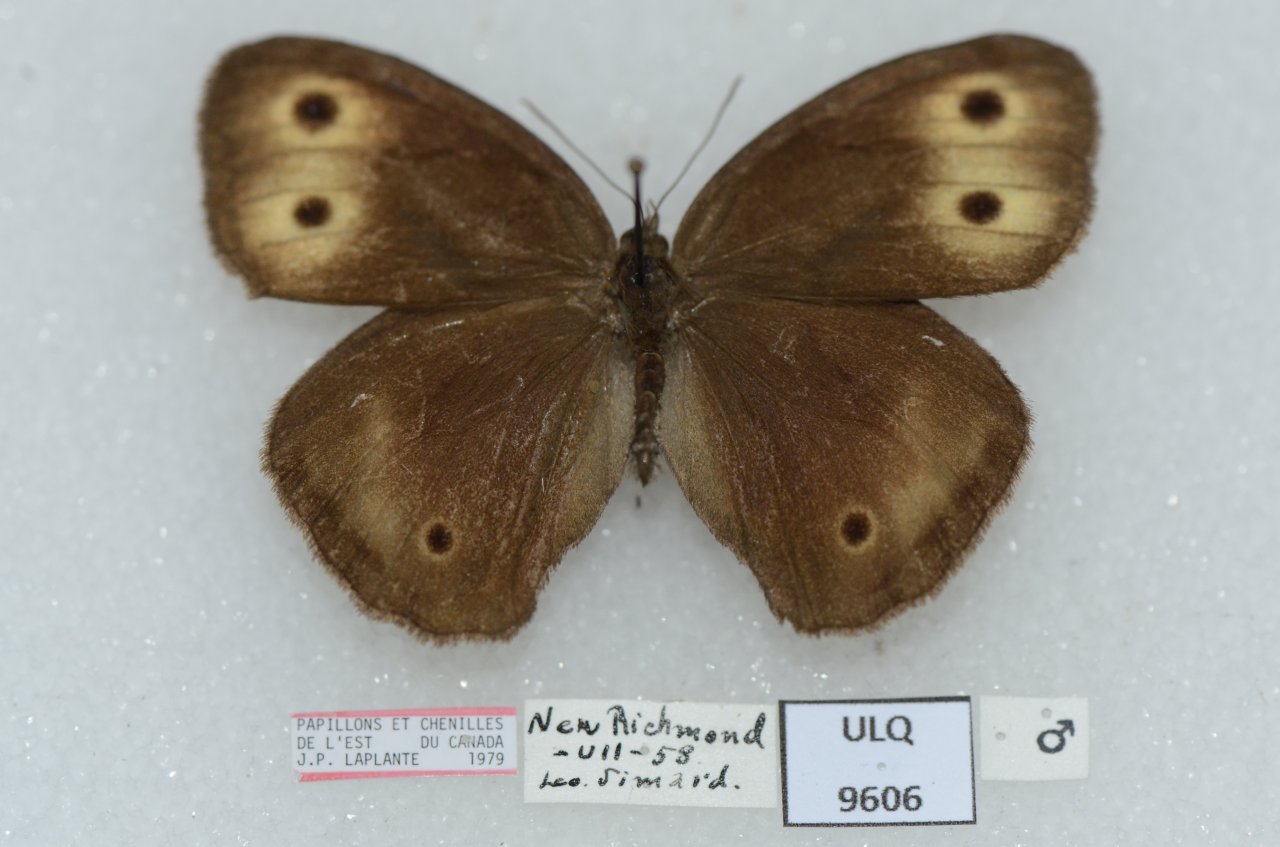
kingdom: Animalia
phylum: Arthropoda
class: Insecta
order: Lepidoptera
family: Nymphalidae
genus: Cercyonis
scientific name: Cercyonis pegala
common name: Common Wood-Nymph
